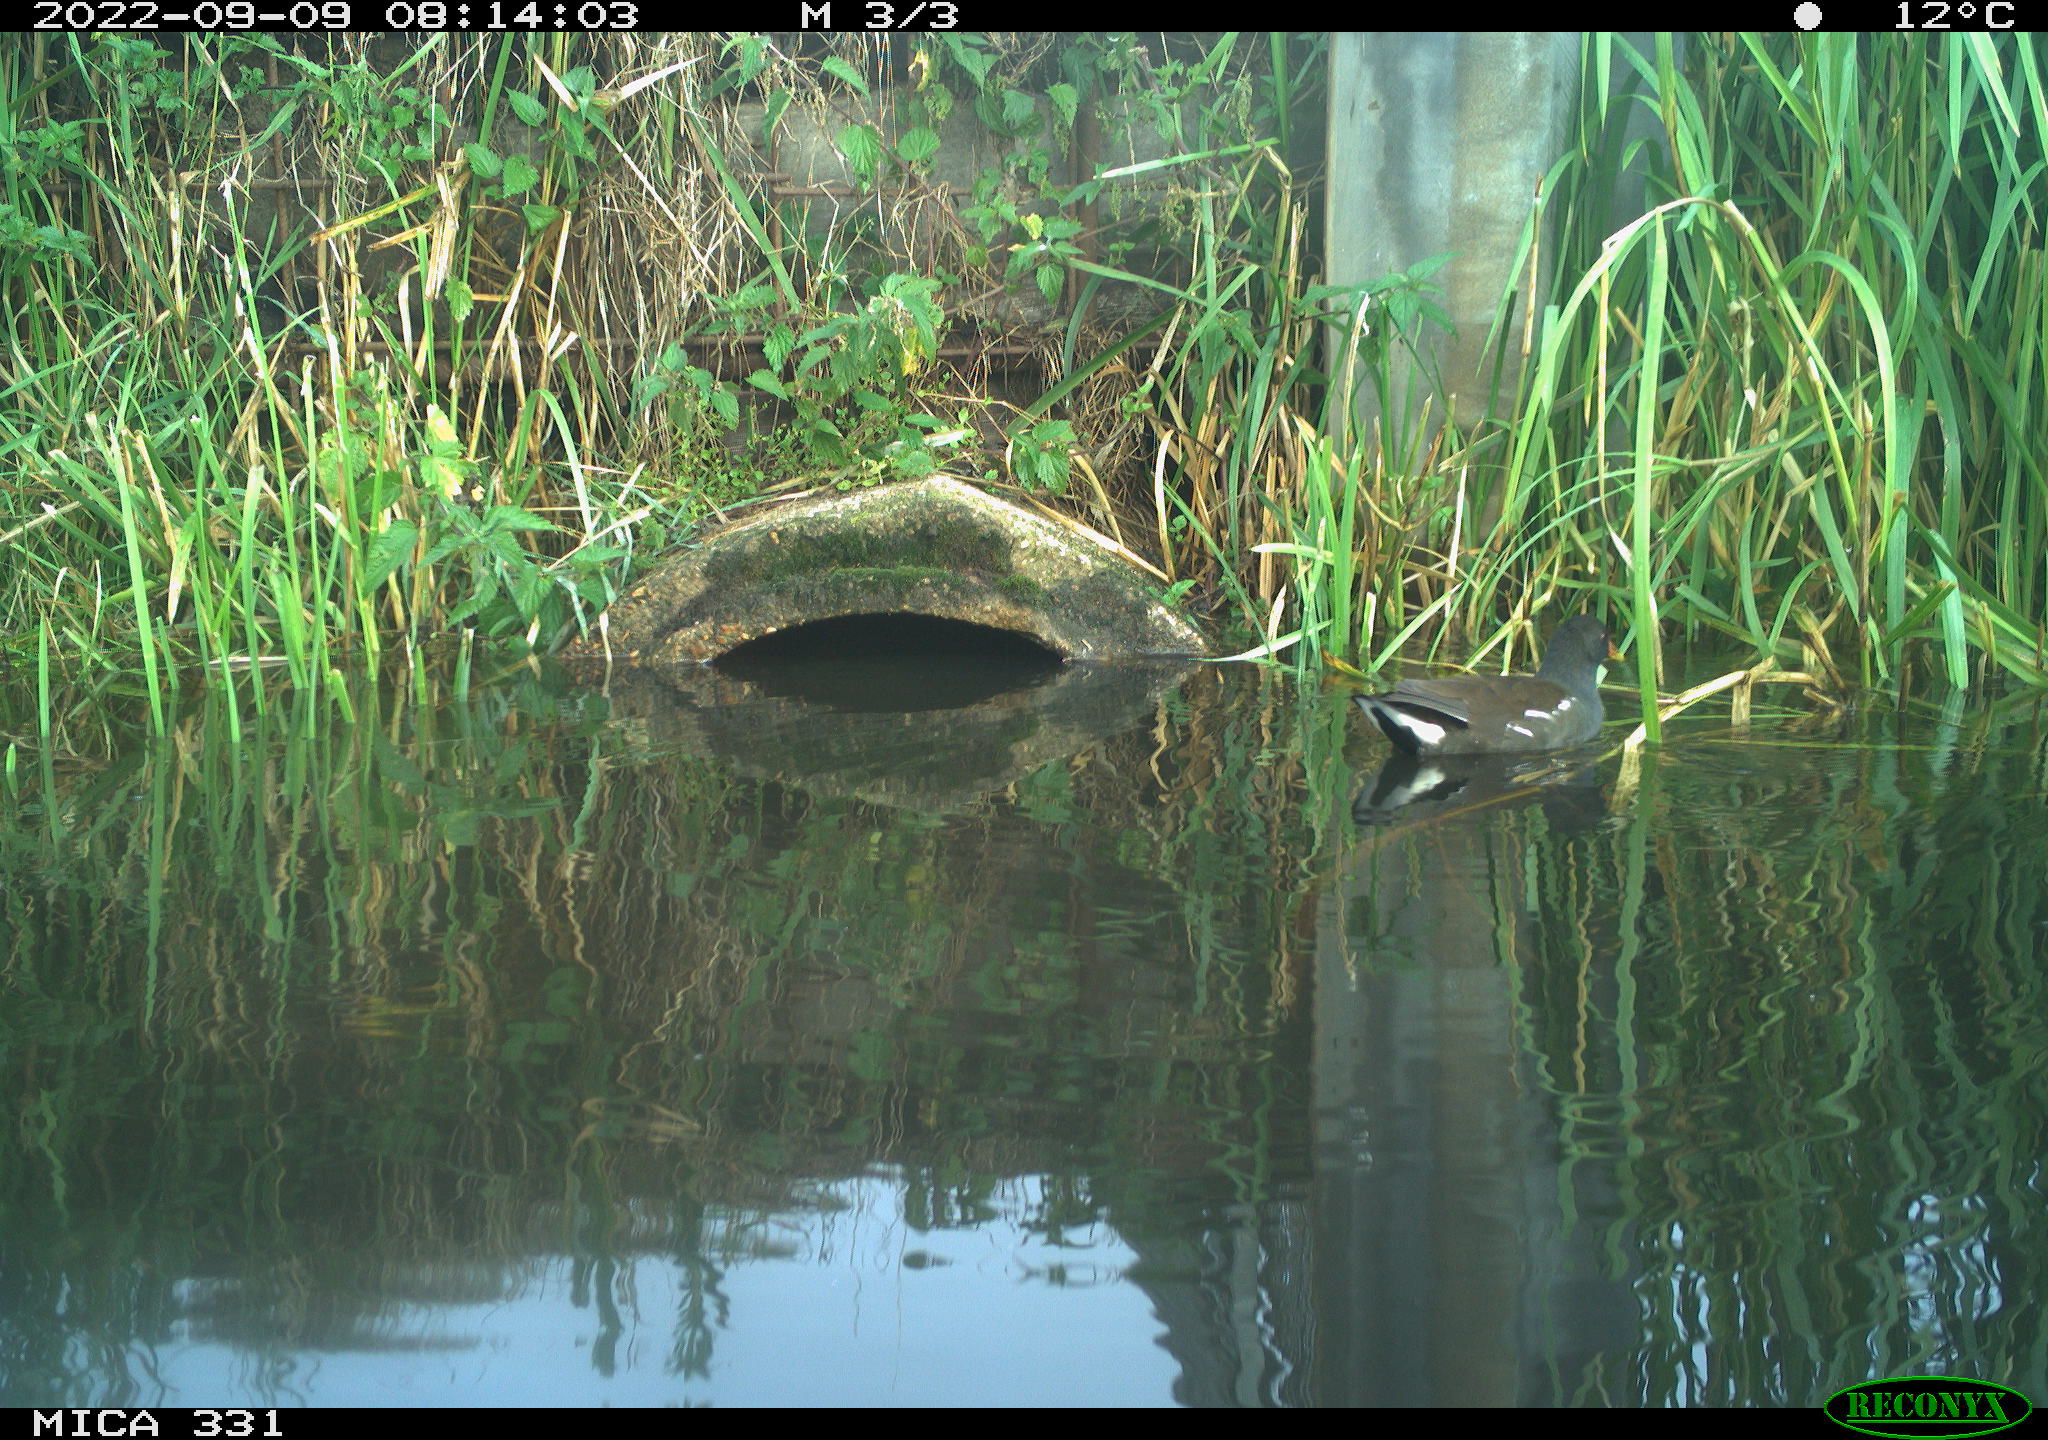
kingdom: Animalia
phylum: Chordata
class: Aves
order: Gruiformes
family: Rallidae
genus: Gallinula
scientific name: Gallinula chloropus
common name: Common moorhen
